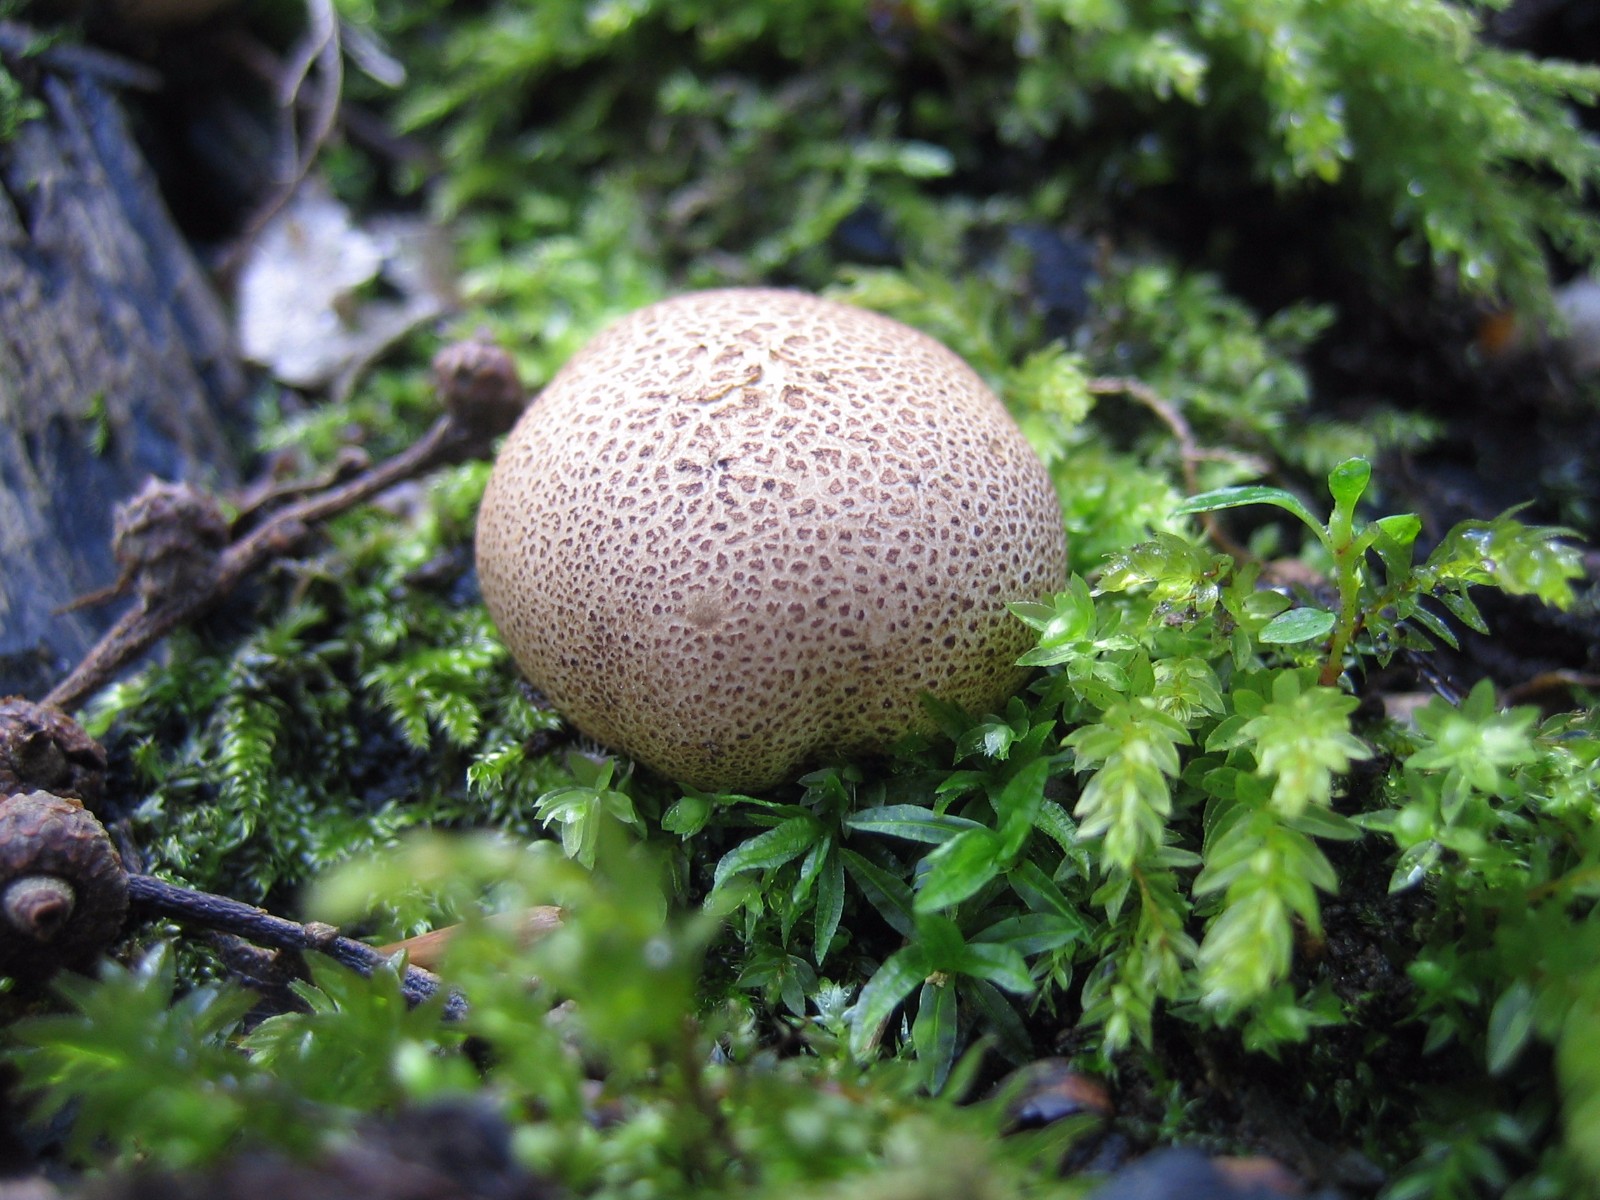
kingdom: Fungi
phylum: Basidiomycota
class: Agaricomycetes
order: Boletales
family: Sclerodermataceae
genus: Scleroderma
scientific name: Scleroderma citrinum
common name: almindelig bruskbold
